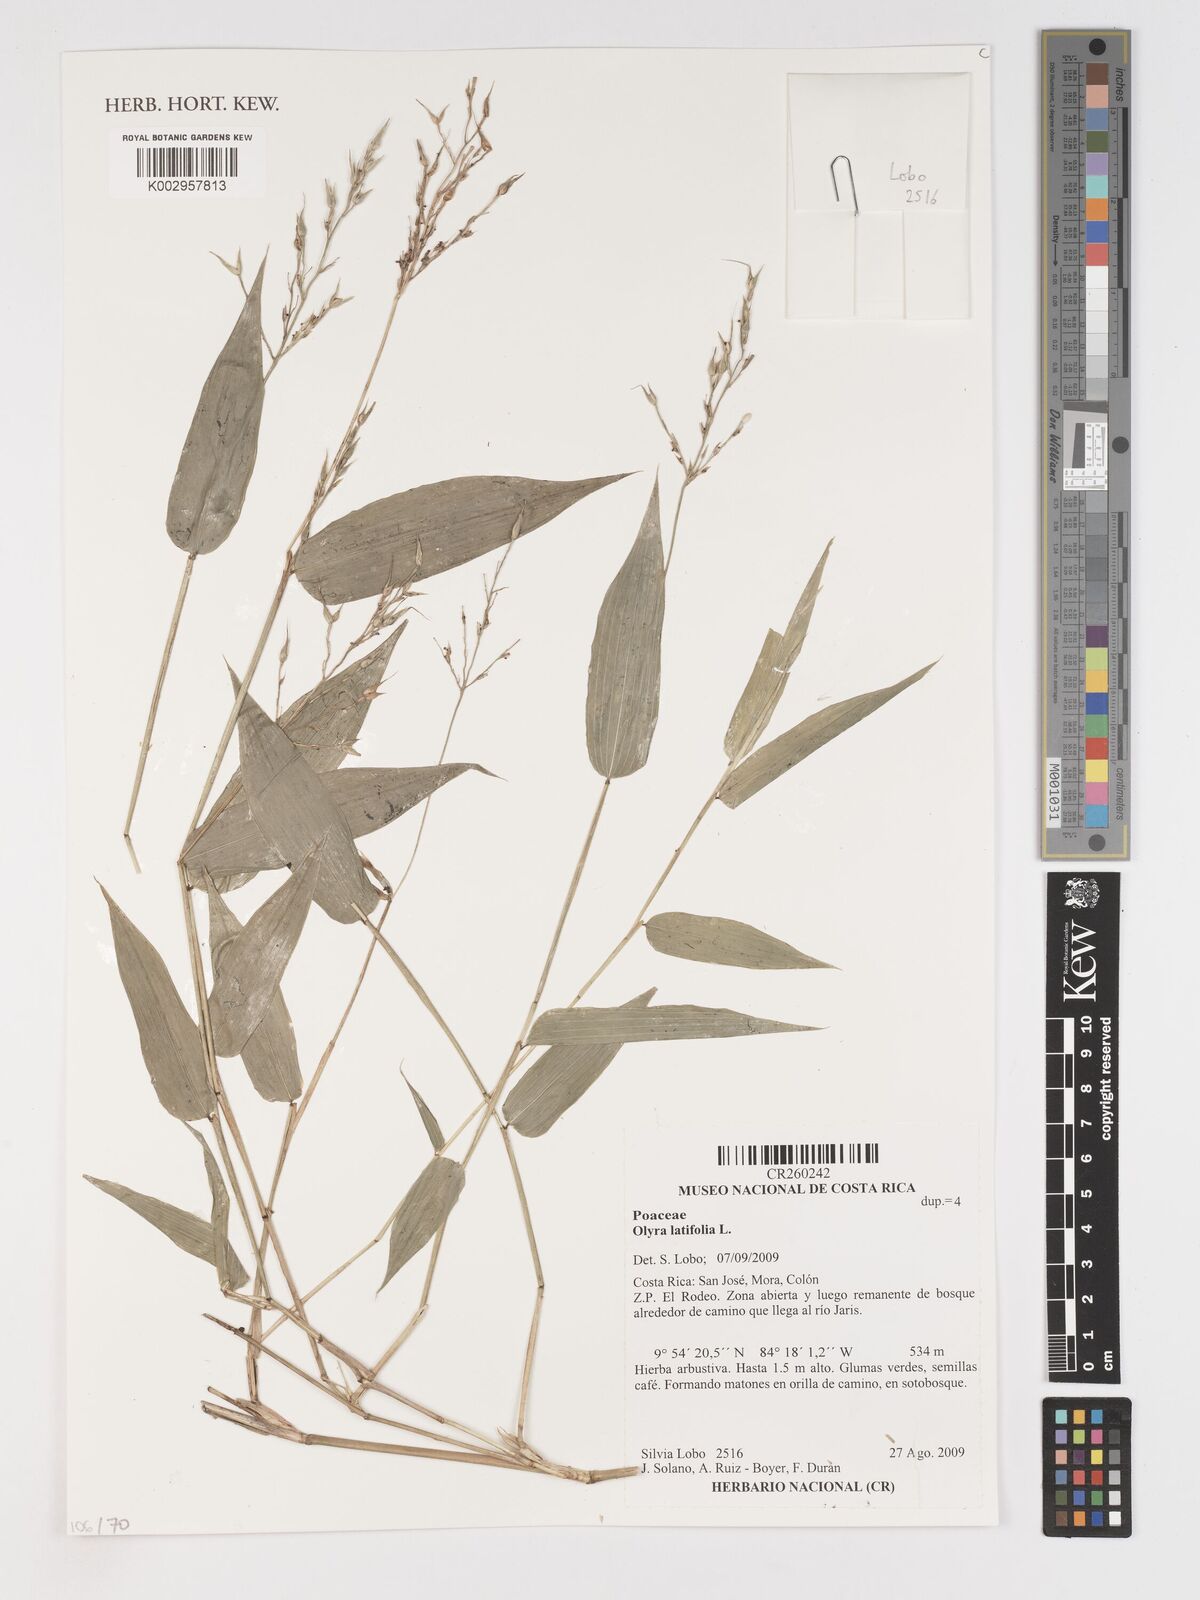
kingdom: Plantae
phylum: Tracheophyta
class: Liliopsida
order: Poales
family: Poaceae
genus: Olyra
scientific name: Olyra latifolia
